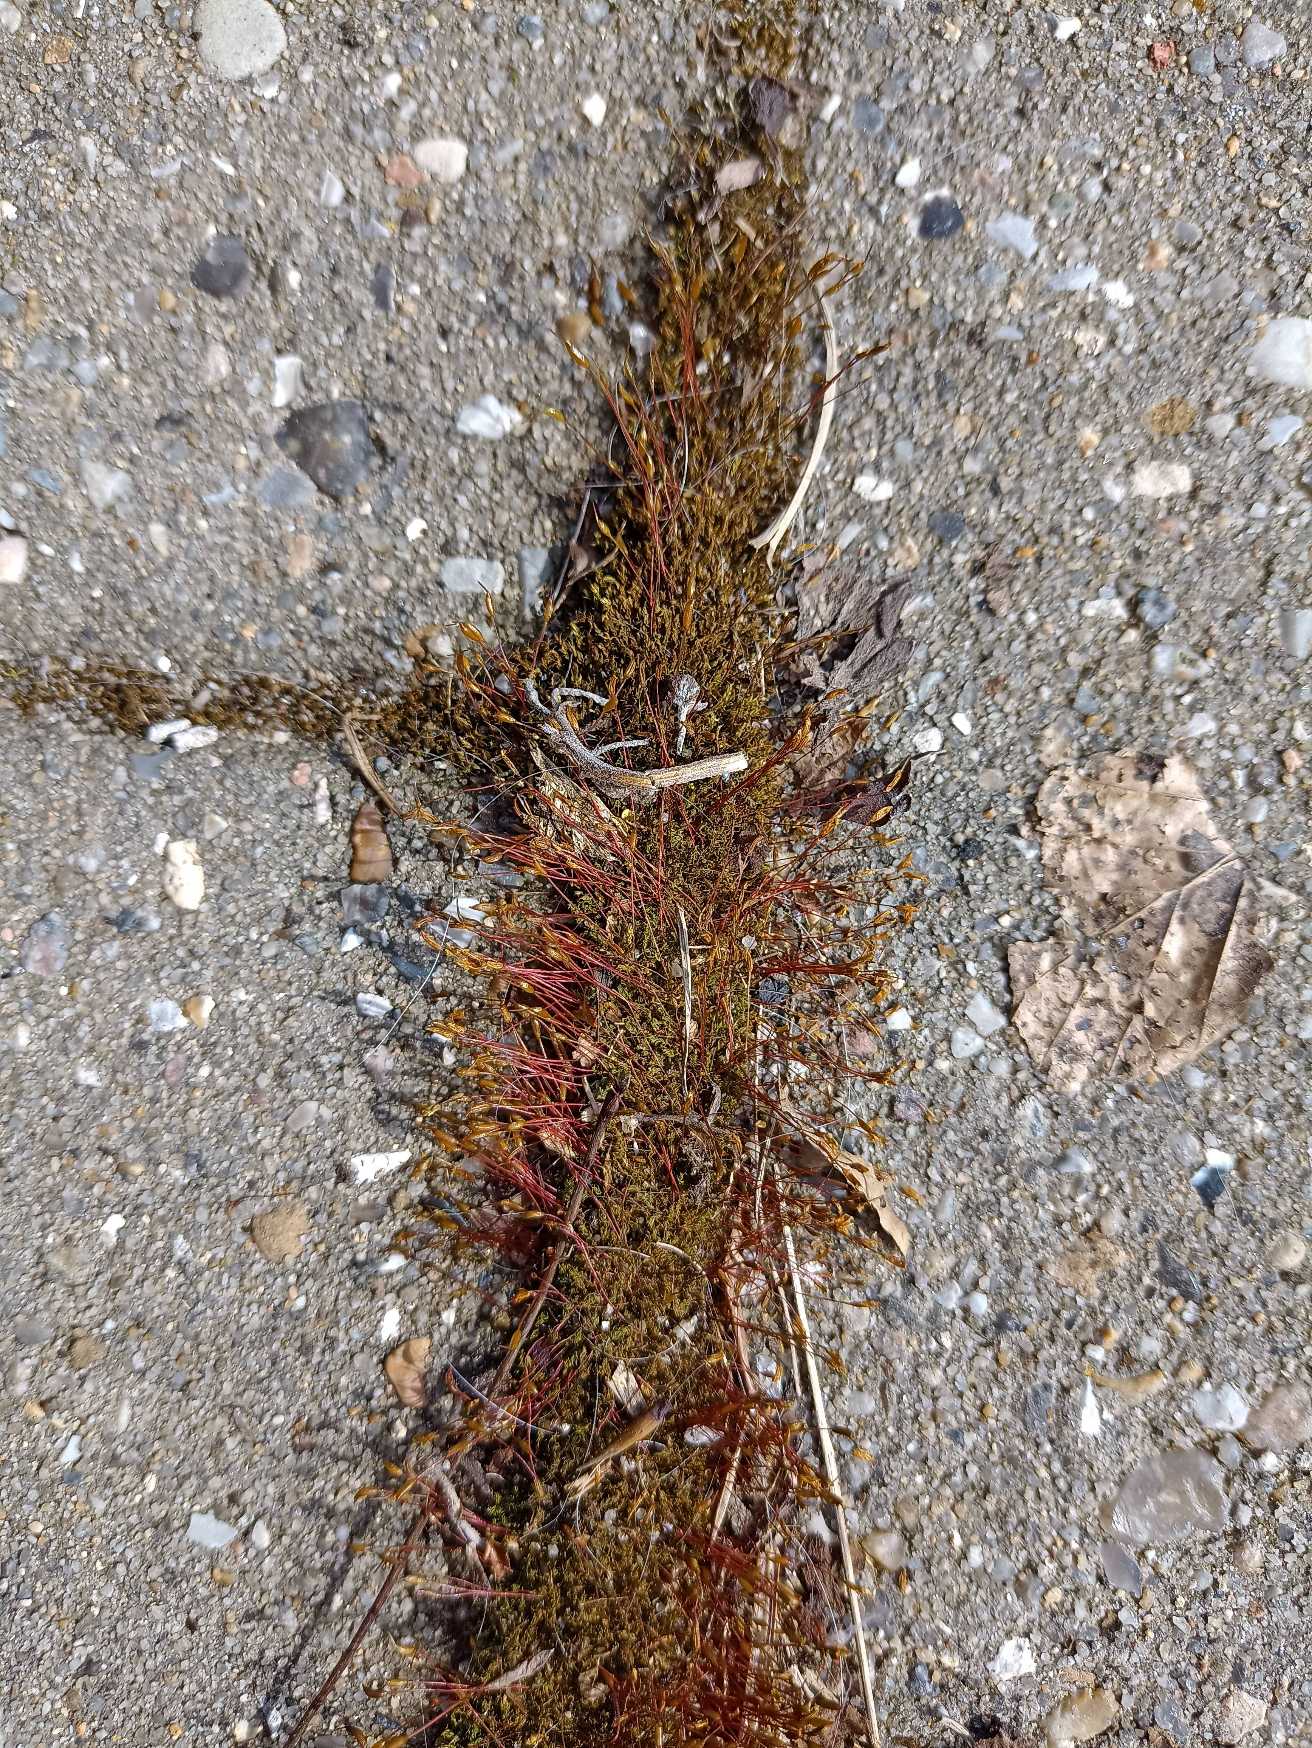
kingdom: Plantae
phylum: Bryophyta
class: Bryopsida
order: Dicranales
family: Ditrichaceae
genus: Ceratodon
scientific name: Ceratodon purpureus
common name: Rød horntand
